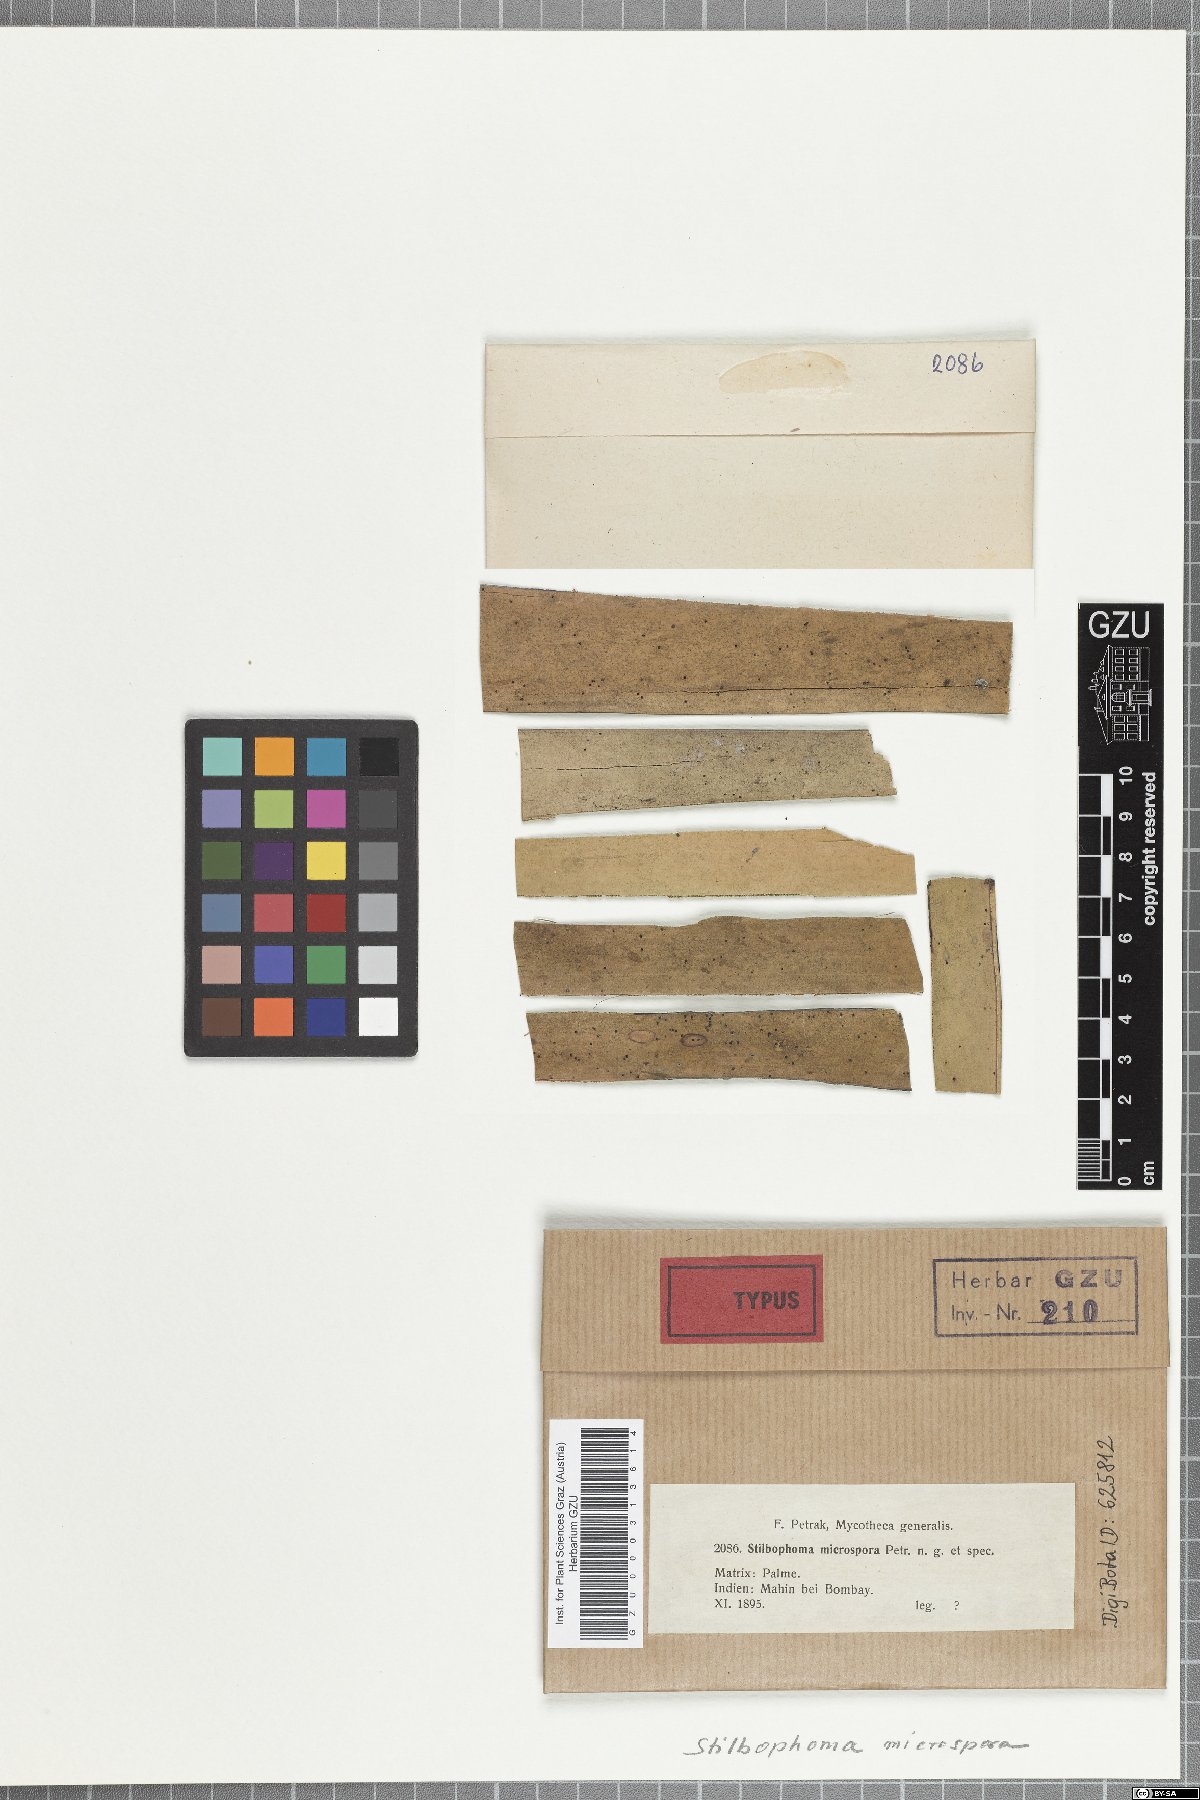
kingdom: Fungi
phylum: Ascomycota
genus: Stilbophoma
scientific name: Stilbophoma microspora
